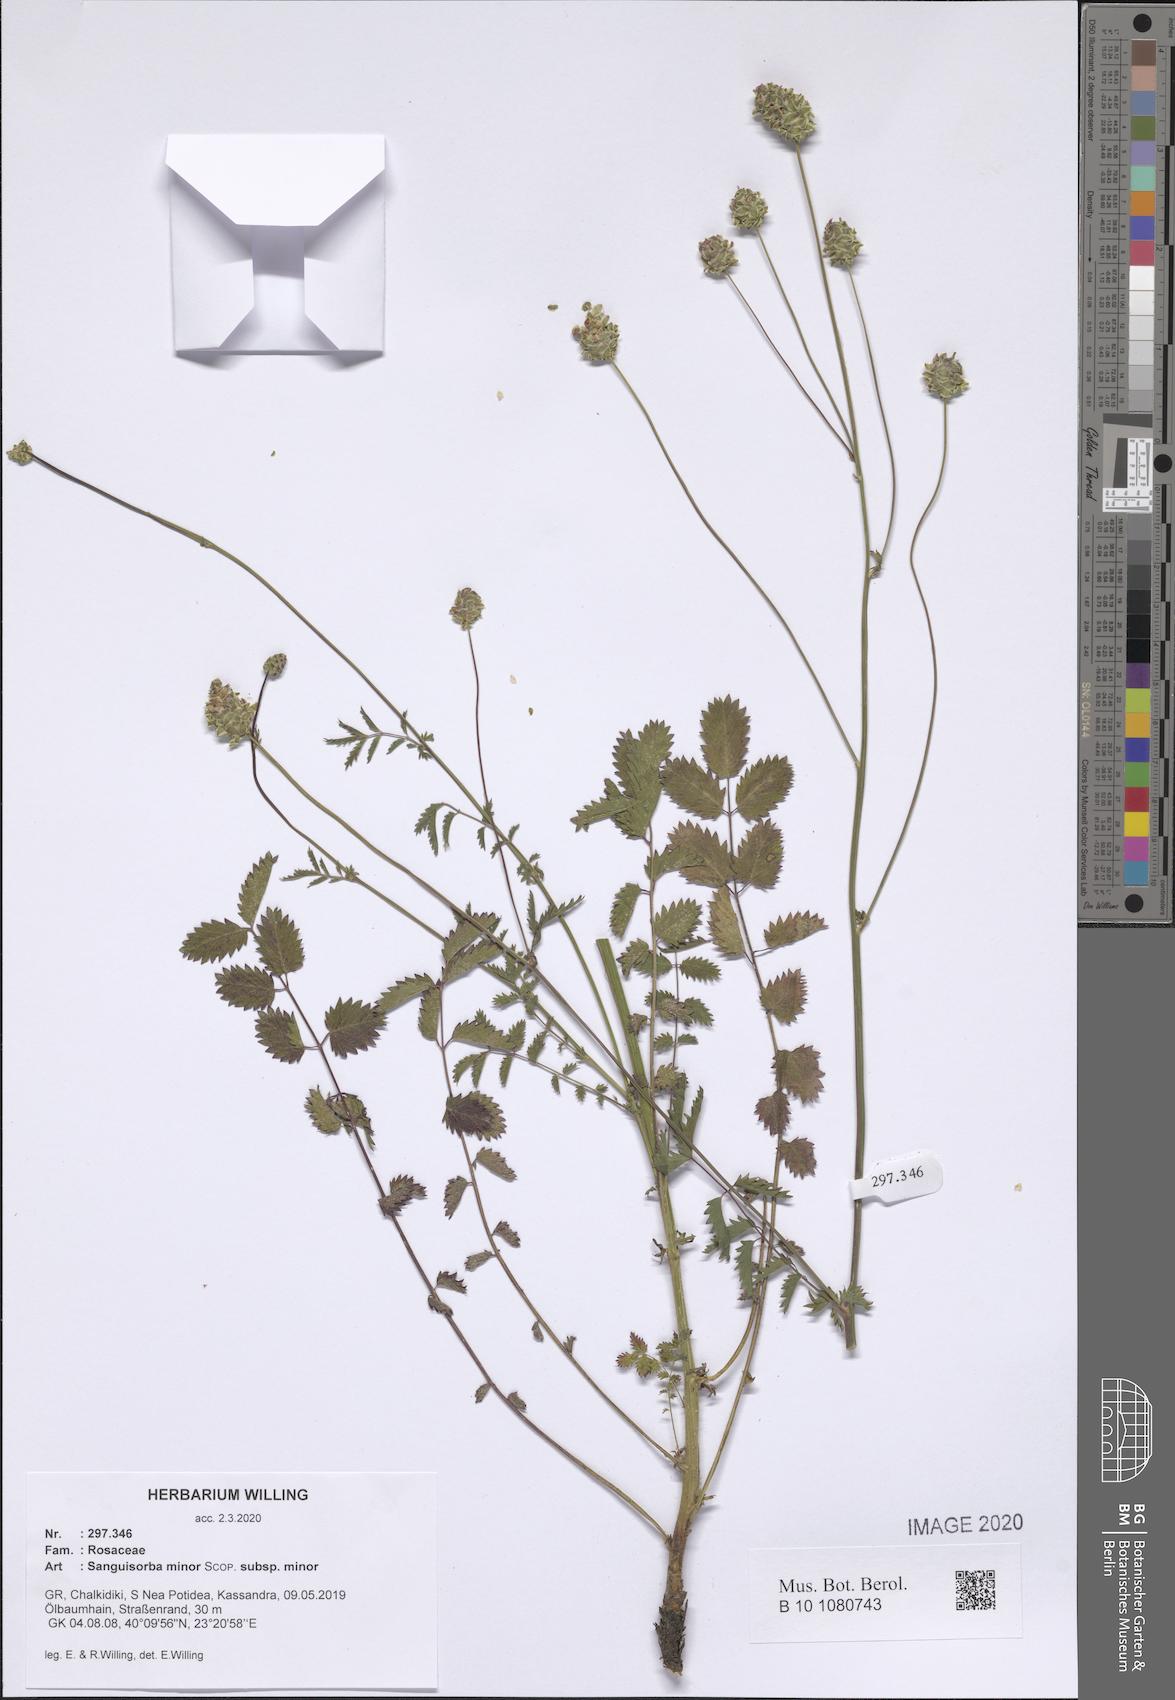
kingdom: Plantae
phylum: Tracheophyta
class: Magnoliopsida
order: Rosales
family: Rosaceae
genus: Poterium
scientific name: Poterium sanguisorba
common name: Salad burnet
